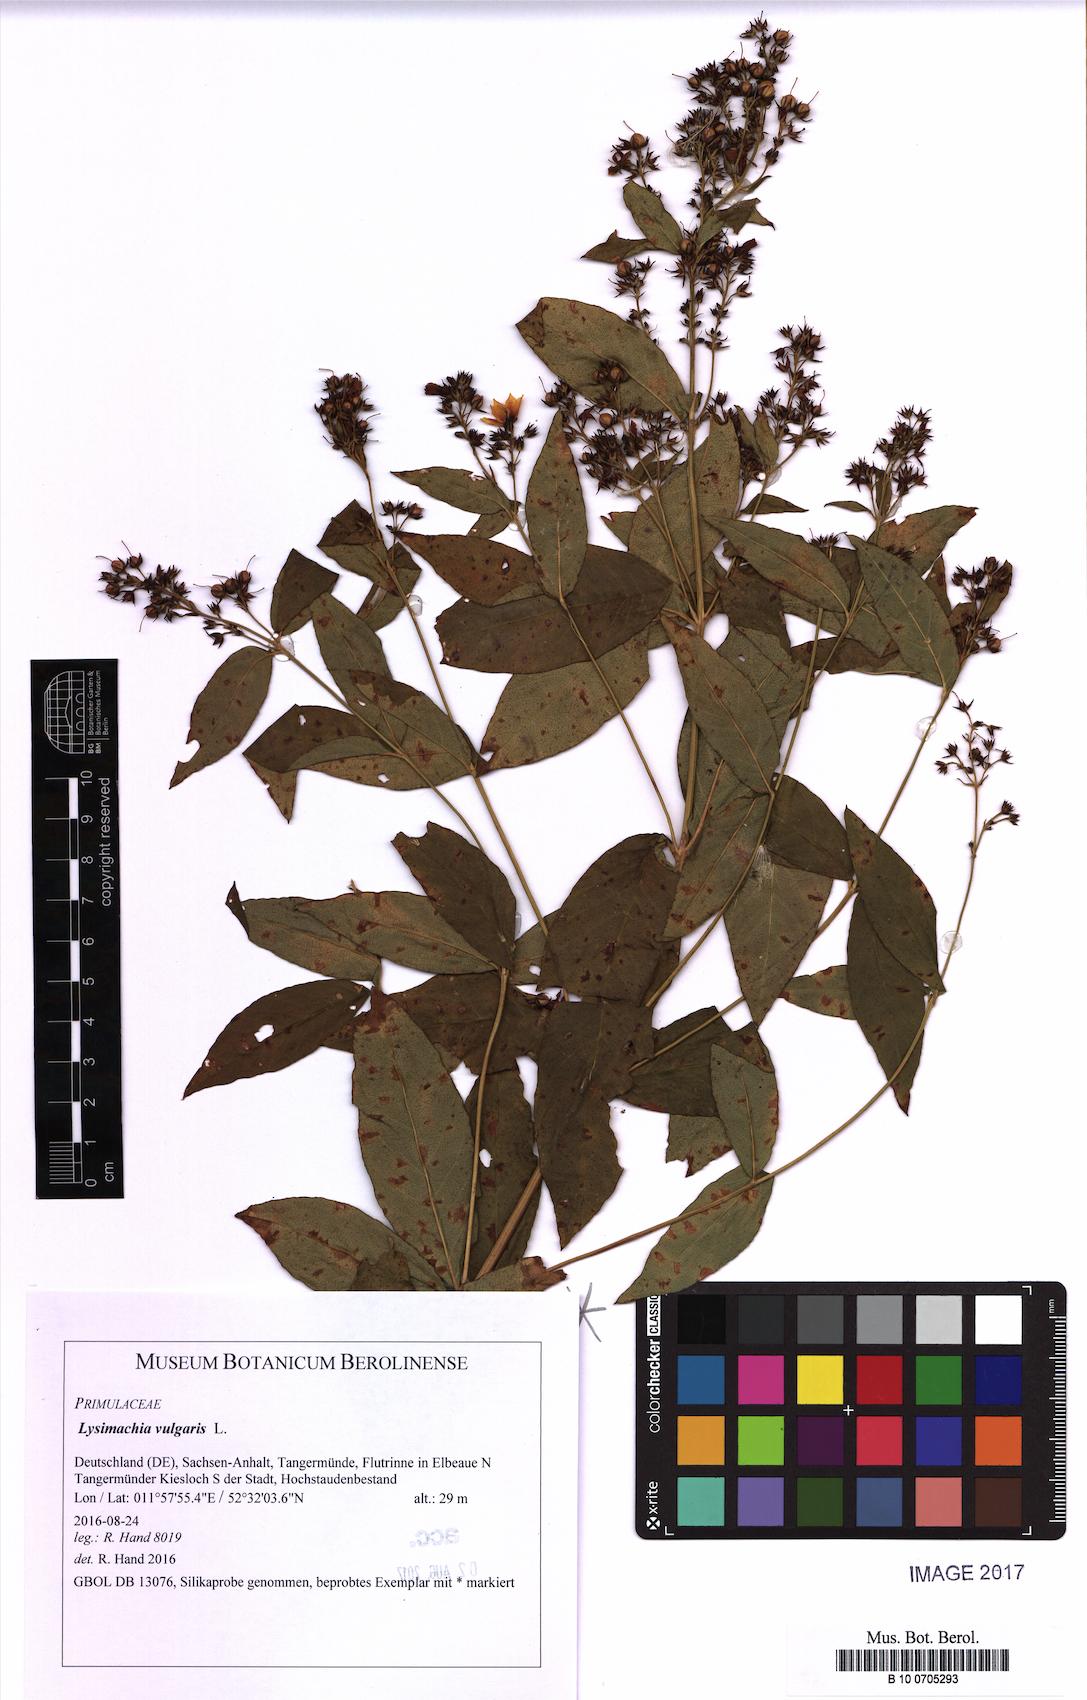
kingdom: Plantae
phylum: Tracheophyta
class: Magnoliopsida
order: Ericales
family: Primulaceae
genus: Lysimachia
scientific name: Lysimachia vulgaris
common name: Yellow loosestrife
